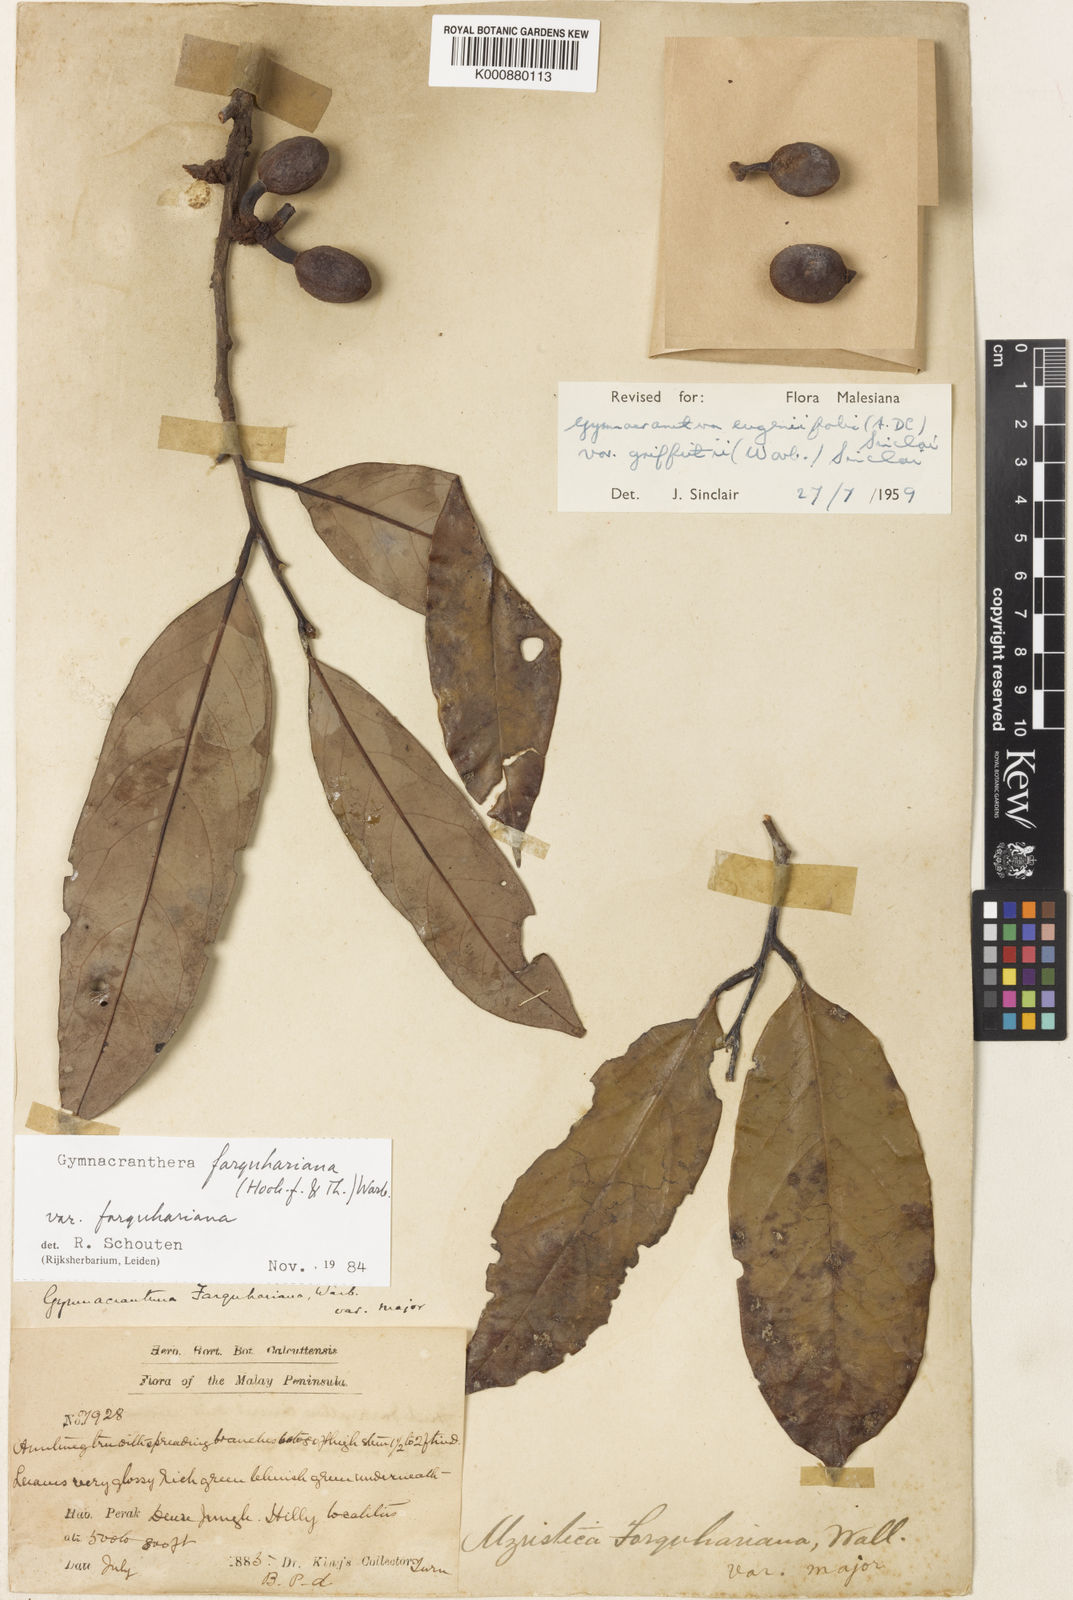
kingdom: Plantae
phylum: Tracheophyta
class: Magnoliopsida
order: Magnoliales
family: Myristicaceae
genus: Gymnacranthera
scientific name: Gymnacranthera farquhariana
